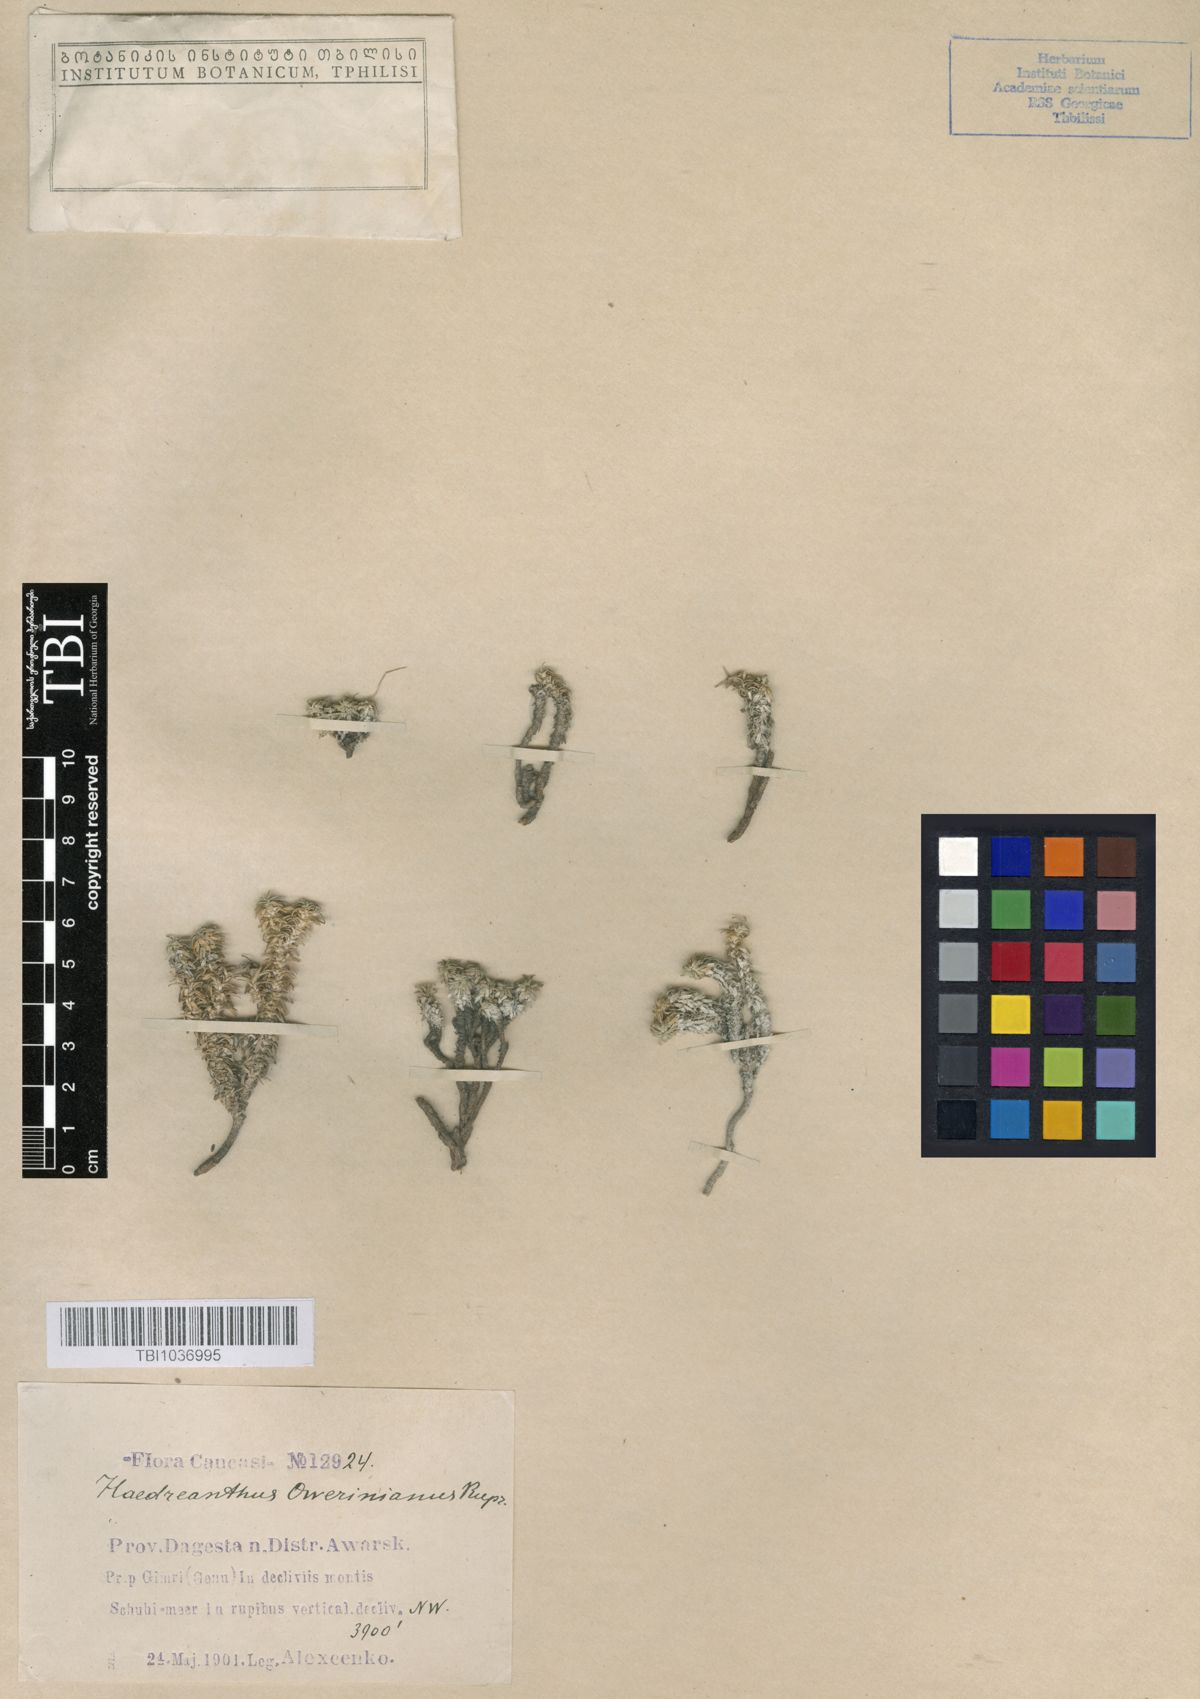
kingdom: Plantae
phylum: Tracheophyta
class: Magnoliopsida
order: Asterales
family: Campanulaceae
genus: Muehlbergella
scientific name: Muehlbergella oweriana
